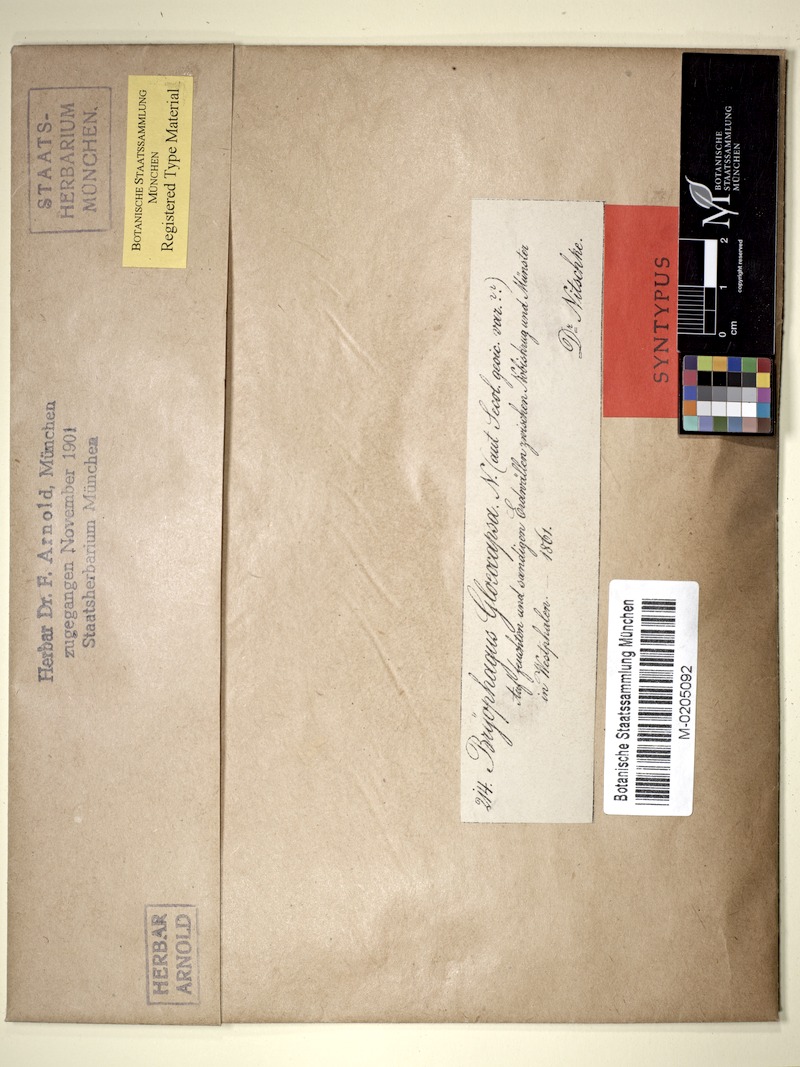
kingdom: Fungi
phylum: Ascomycota
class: Lecanoromycetes
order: Ostropales
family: Stictidaceae
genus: Cryptodiscus
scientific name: Cryptodiscus gloeocapsa
